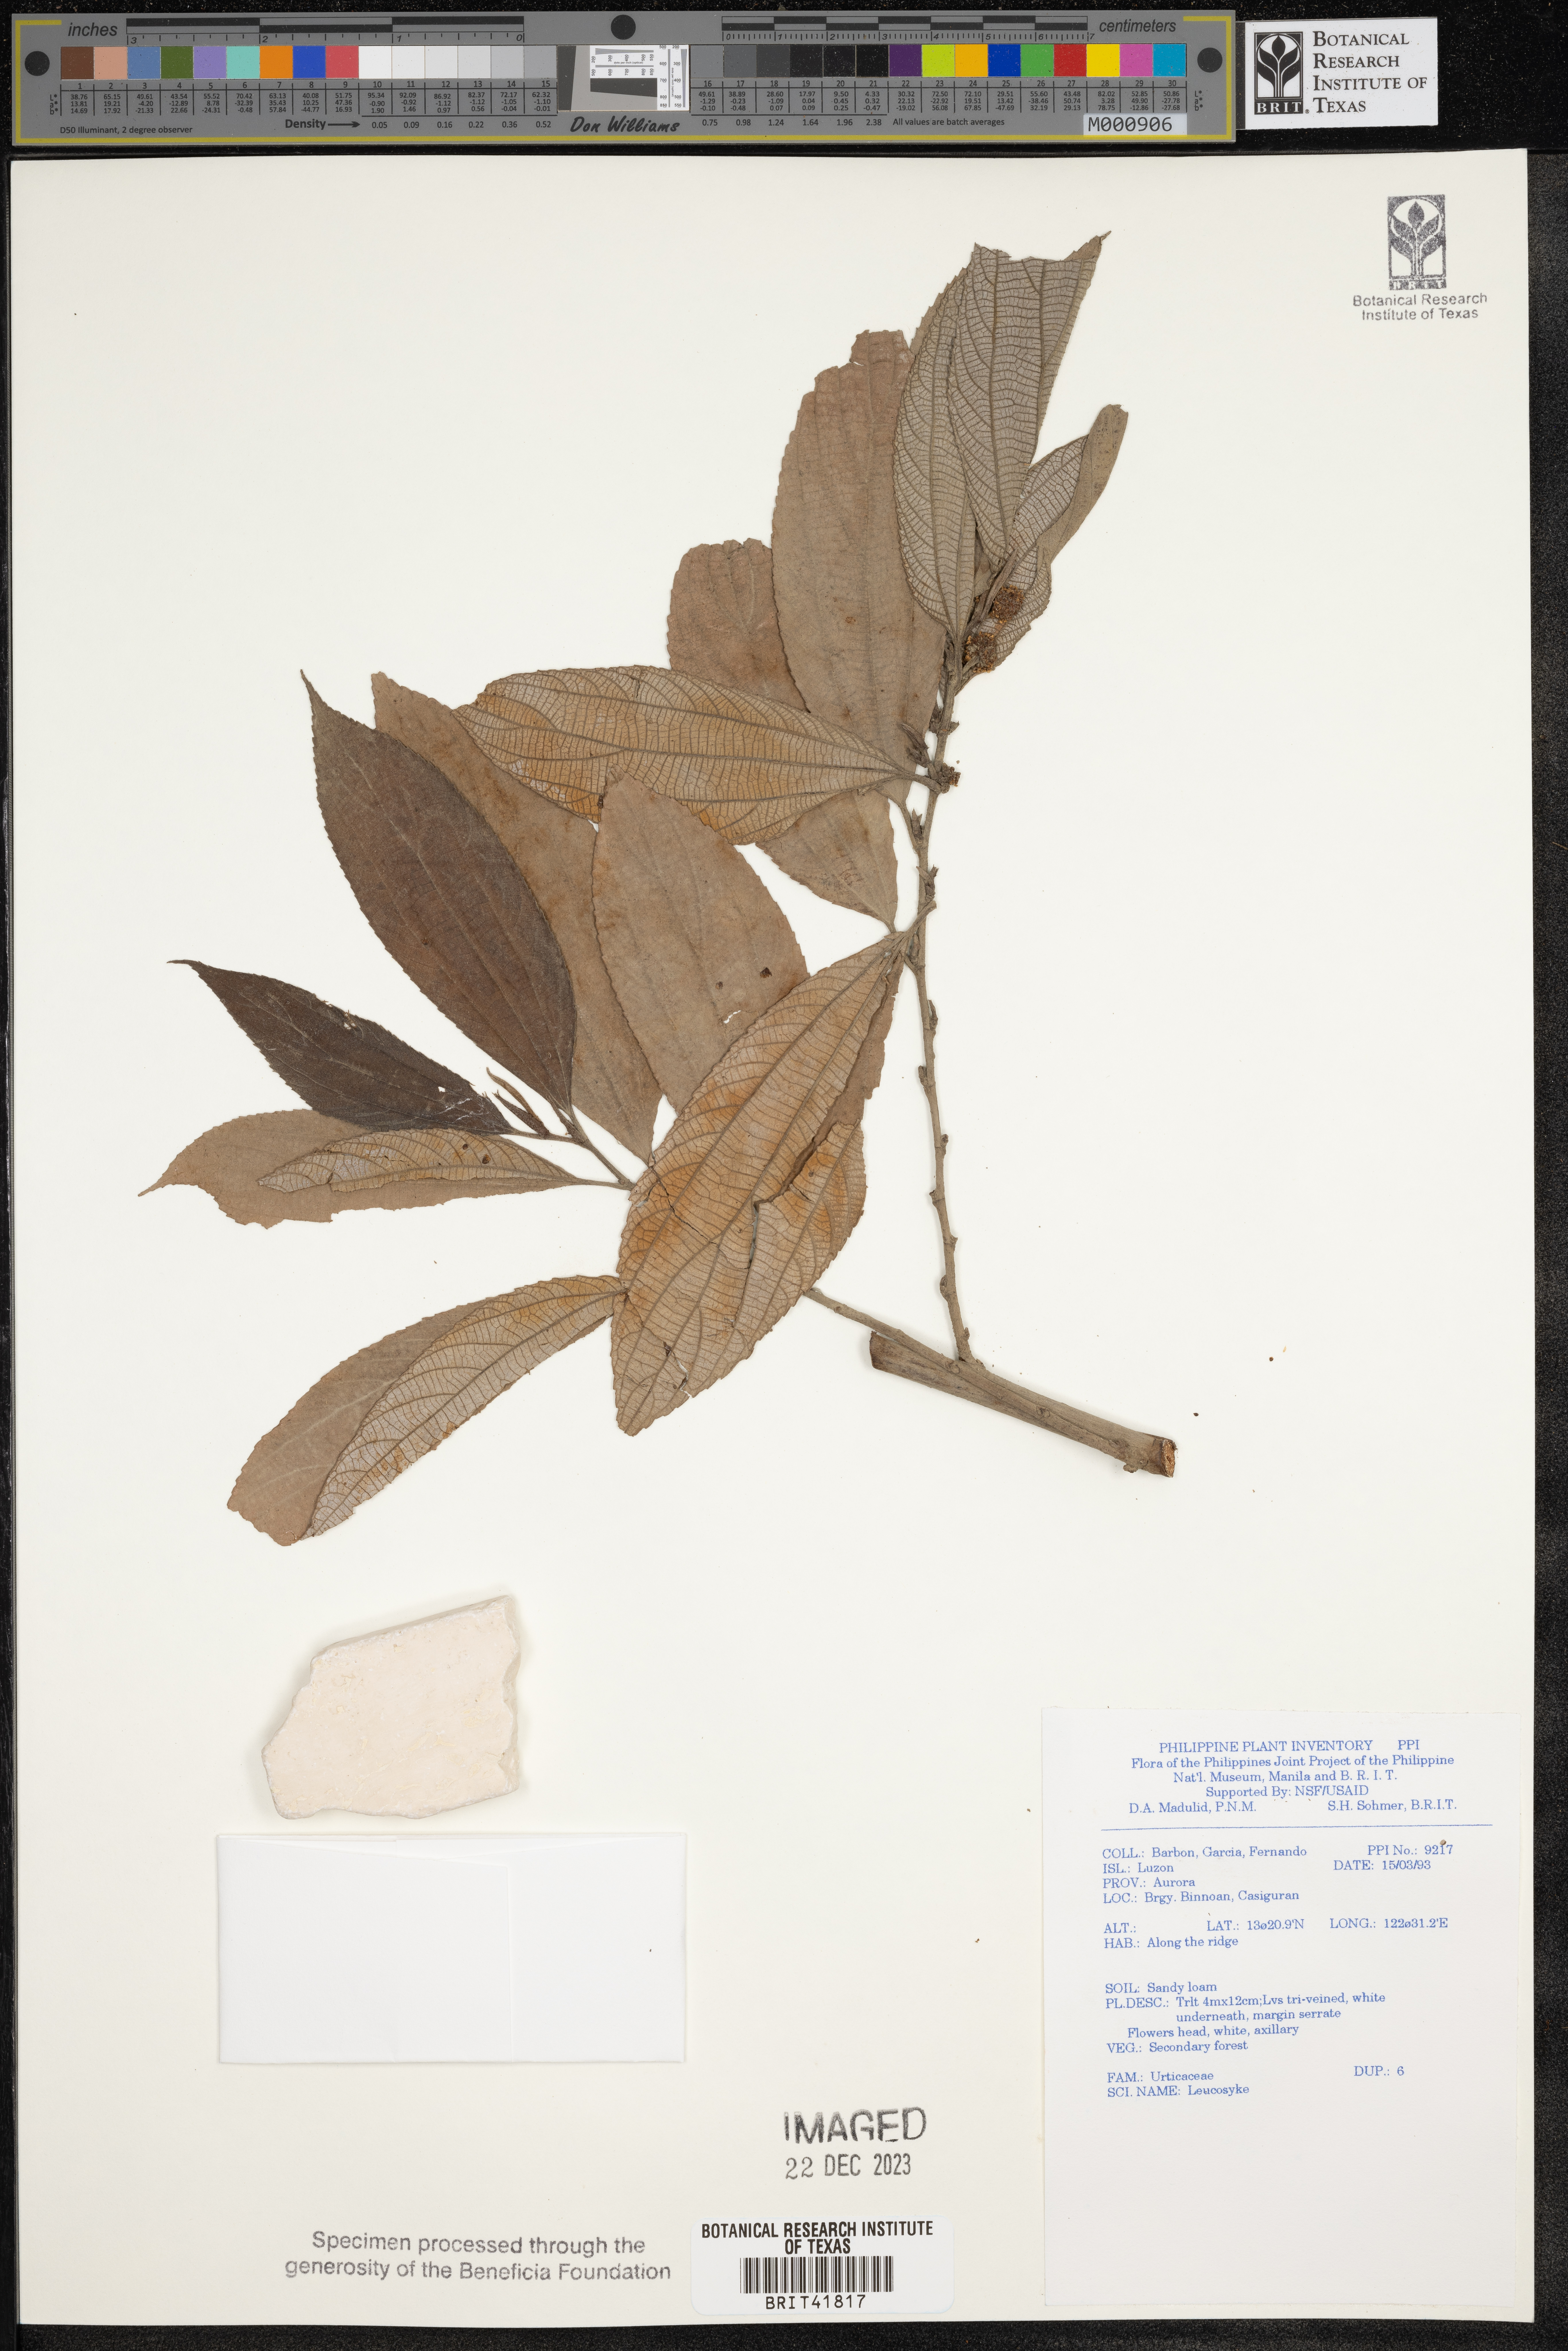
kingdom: Plantae
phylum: Tracheophyta
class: Magnoliopsida
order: Rosales
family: Urticaceae
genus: Leucosyke
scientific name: Leucosyke
